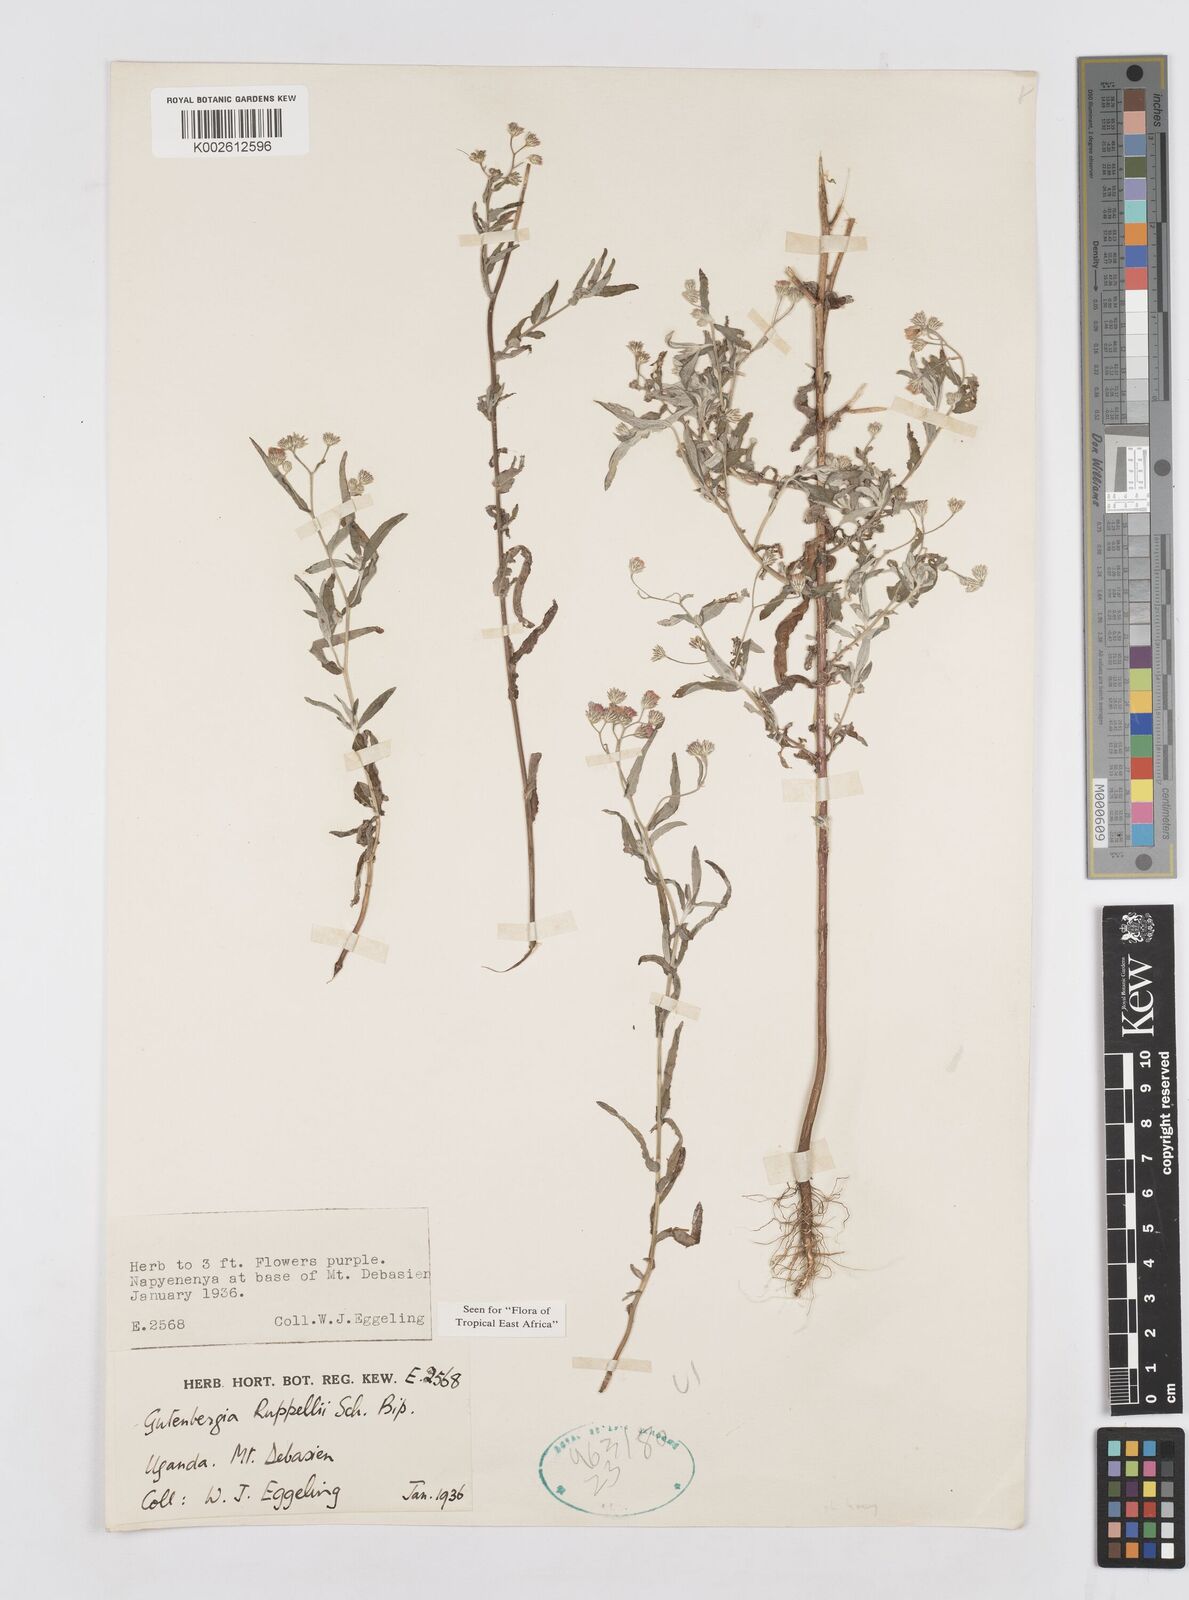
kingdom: Plantae
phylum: Tracheophyta
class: Magnoliopsida
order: Asterales
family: Asteraceae
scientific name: Asteraceae
